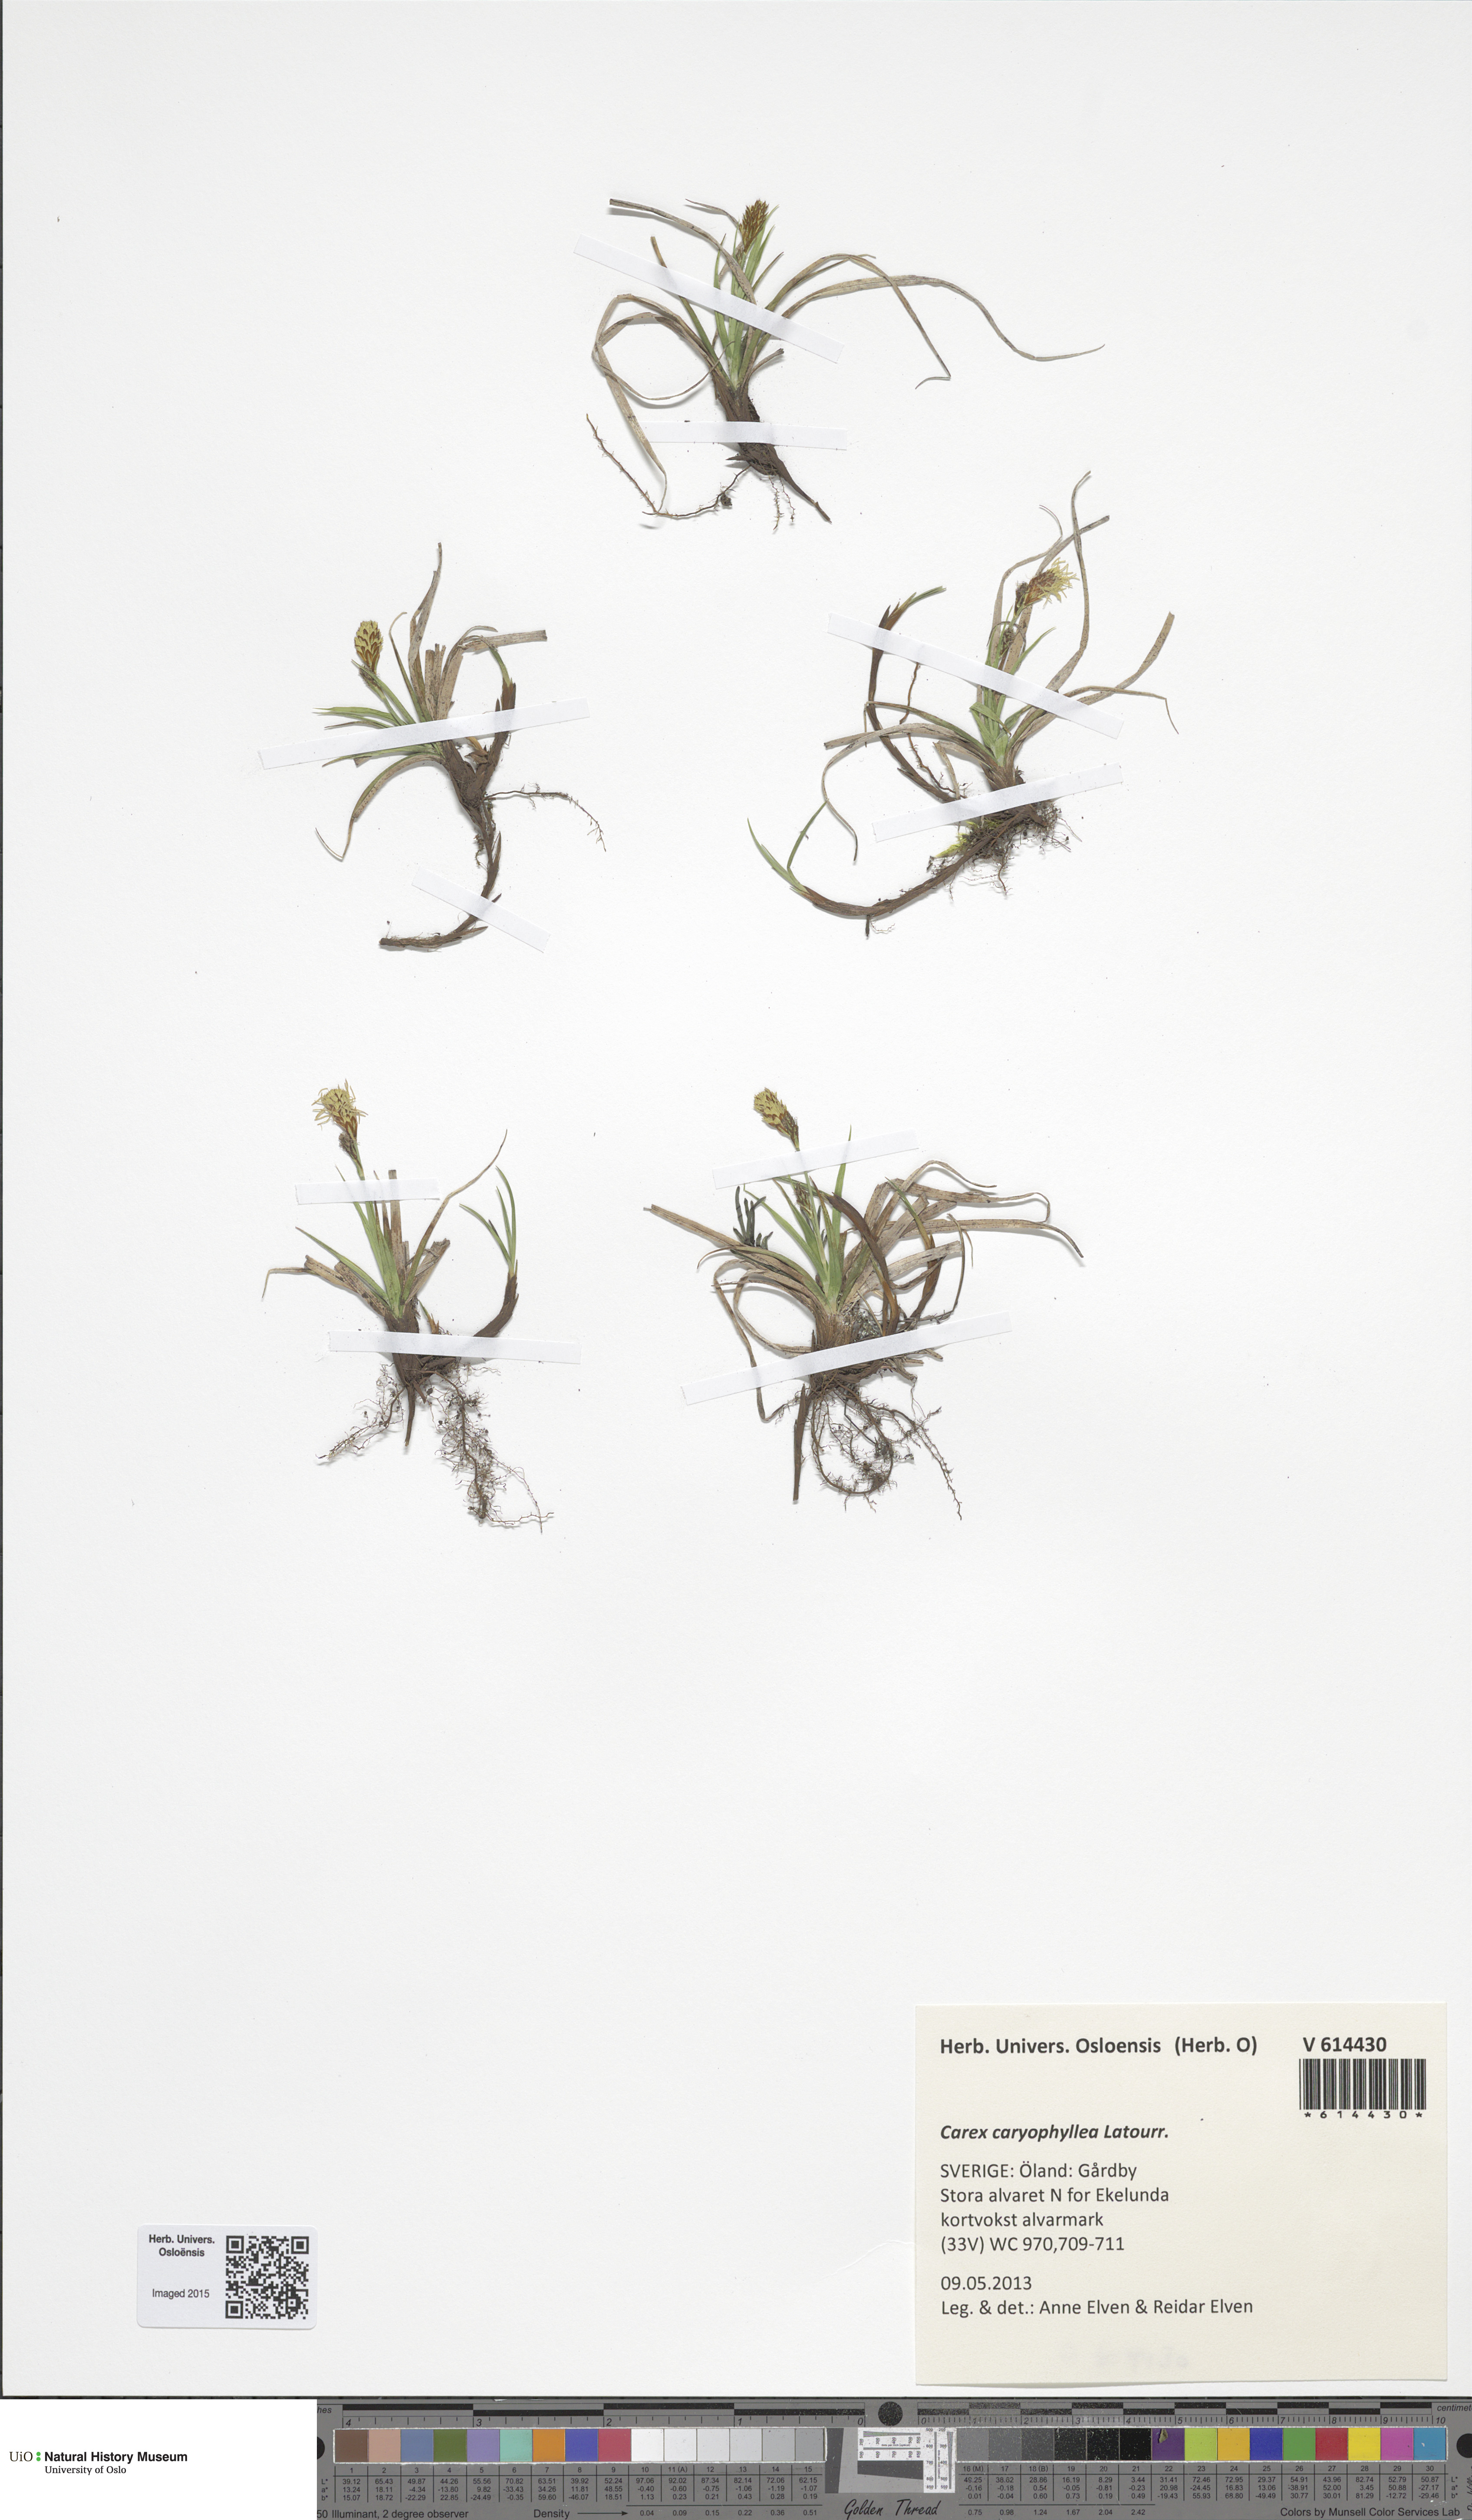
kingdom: Plantae
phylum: Tracheophyta
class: Liliopsida
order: Poales
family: Cyperaceae
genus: Carex
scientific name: Carex caryophyllea
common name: Spring sedge
